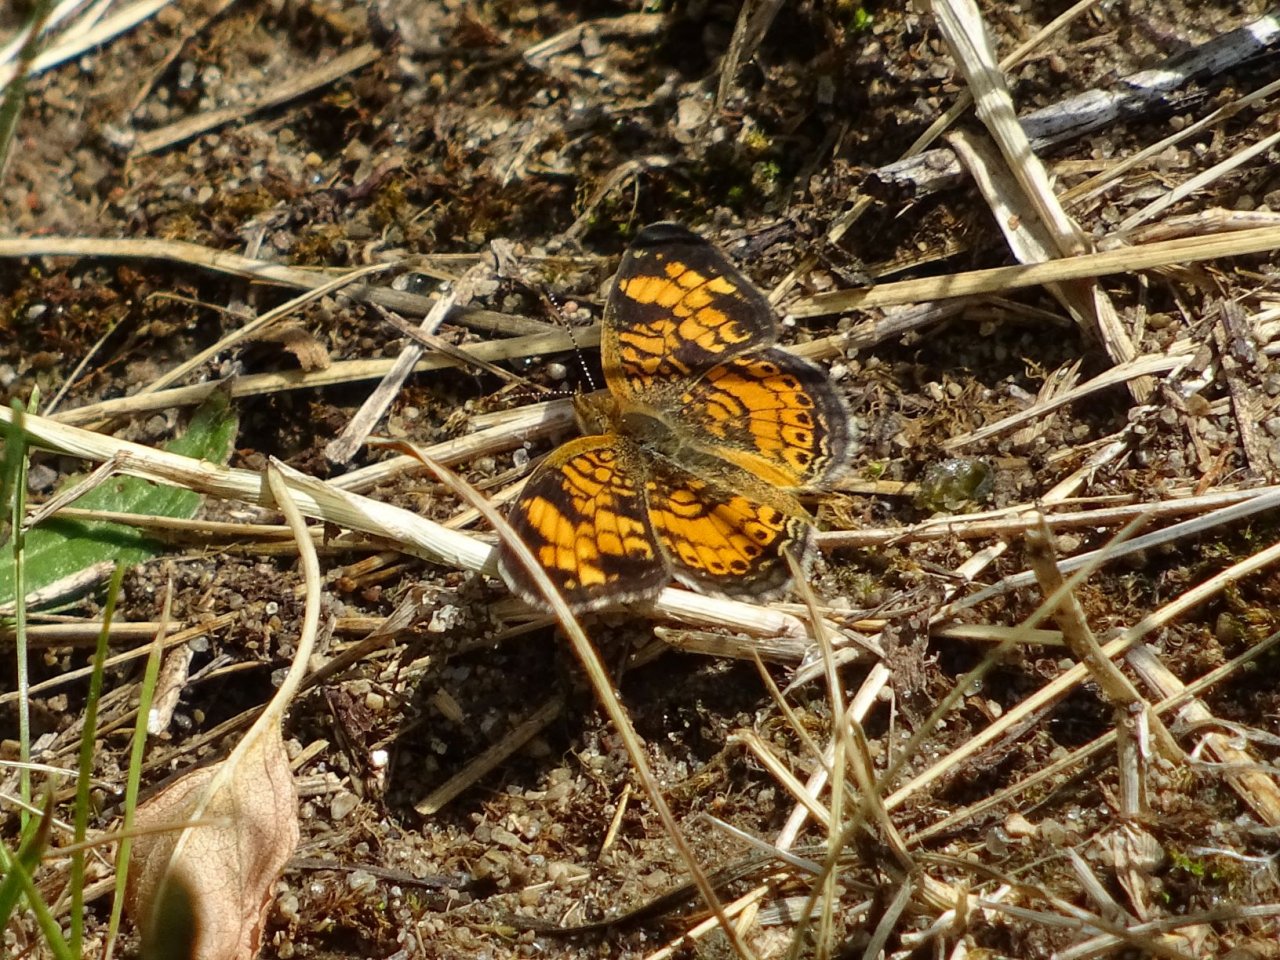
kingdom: Animalia
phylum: Arthropoda
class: Insecta
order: Lepidoptera
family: Nymphalidae
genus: Phyciodes
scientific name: Phyciodes tharos
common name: Pearl Crescent
